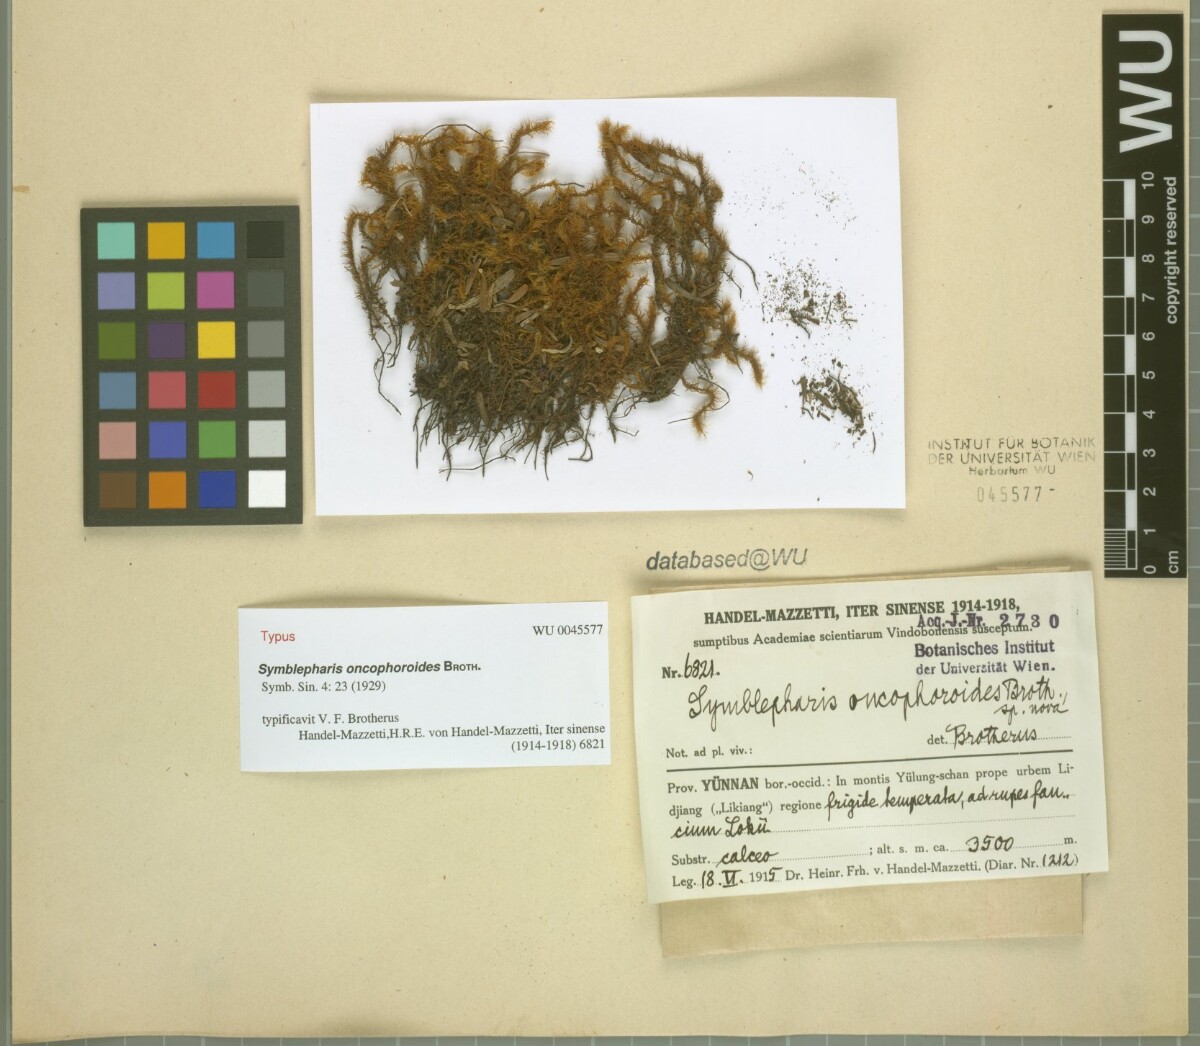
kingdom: Plantae
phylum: Bryophyta
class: Bryopsida
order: Dicranales
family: Rhabdoweisiaceae
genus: Symblepharis
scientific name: Symblepharis oncophoroides
